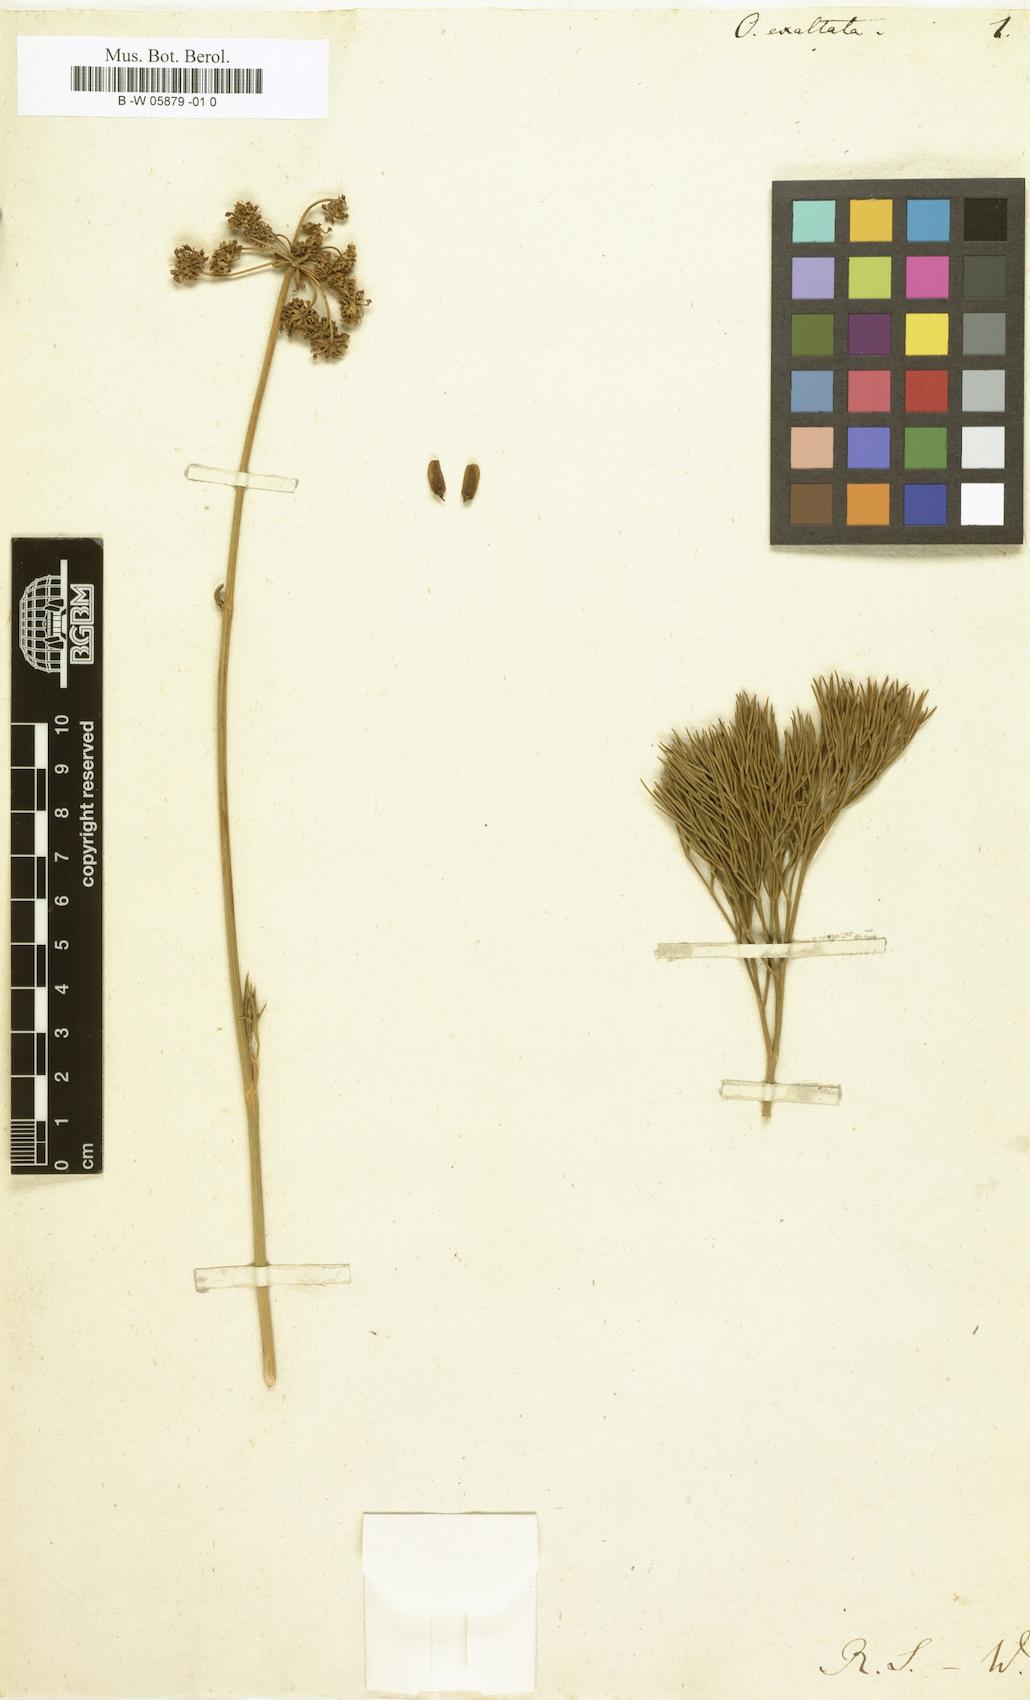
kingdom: Plantae
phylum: Tracheophyta
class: Magnoliopsida
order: Apiales
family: Apiaceae
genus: Anginon
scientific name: Anginon difforme
